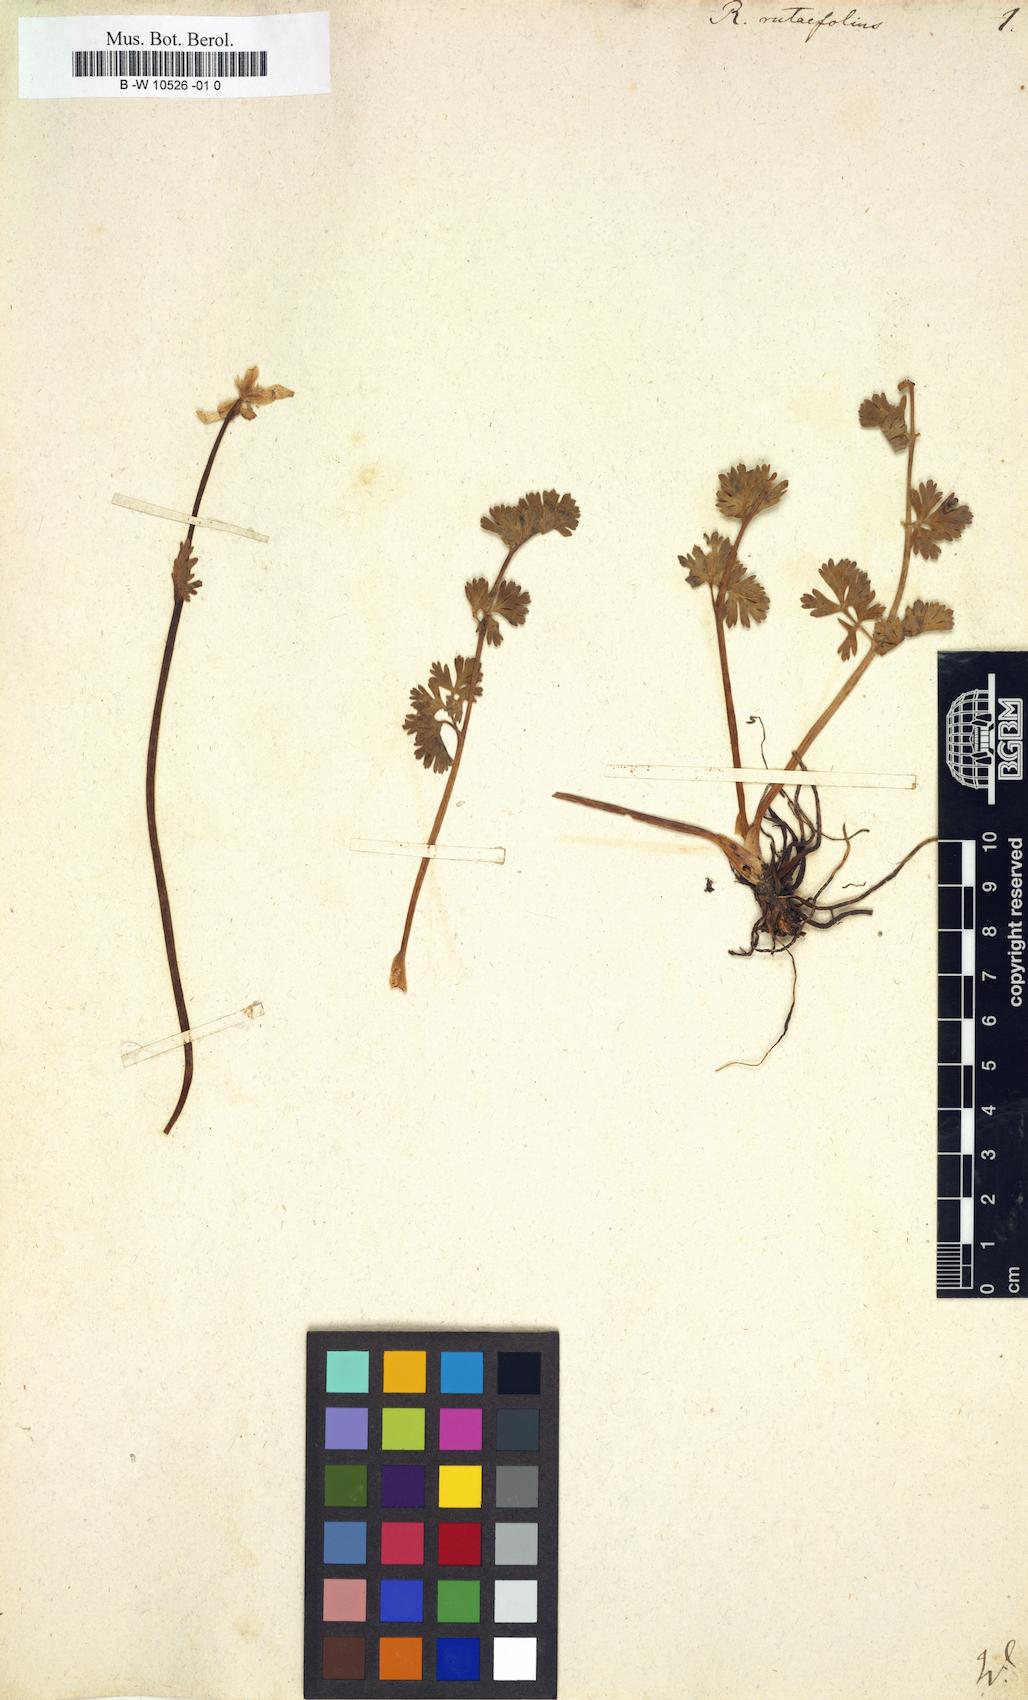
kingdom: Plantae
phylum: Tracheophyta
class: Magnoliopsida
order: Ranunculales
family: Ranunculaceae
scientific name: Ranunculaceae
